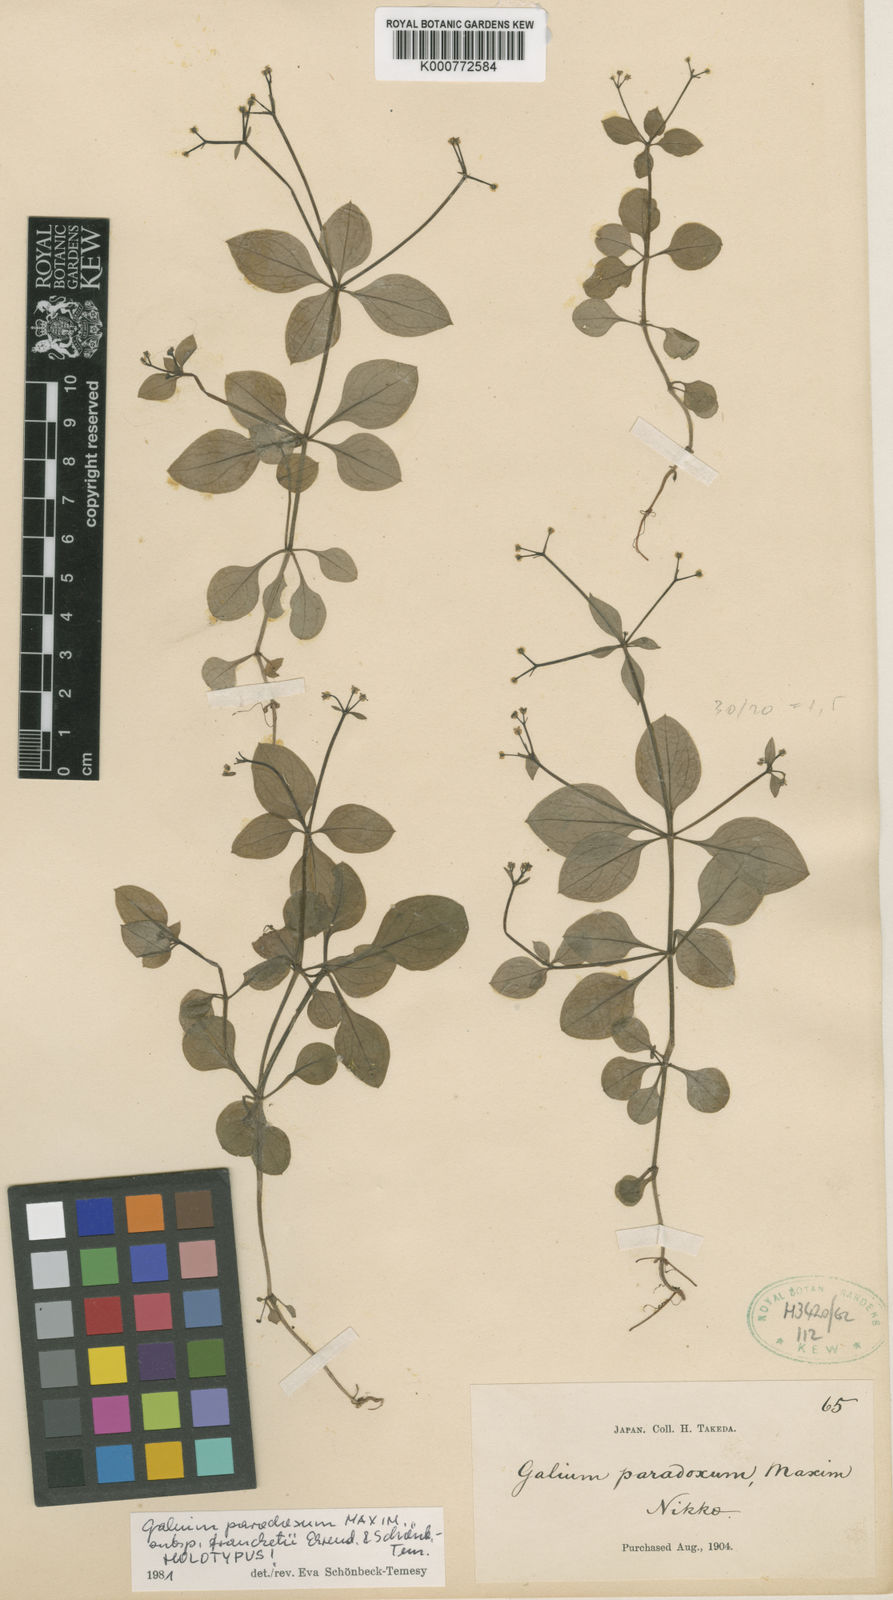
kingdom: Plantae
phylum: Tracheophyta
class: Magnoliopsida
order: Gentianales
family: Rubiaceae
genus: Pseudogalium
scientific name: Pseudogalium paradoxum
